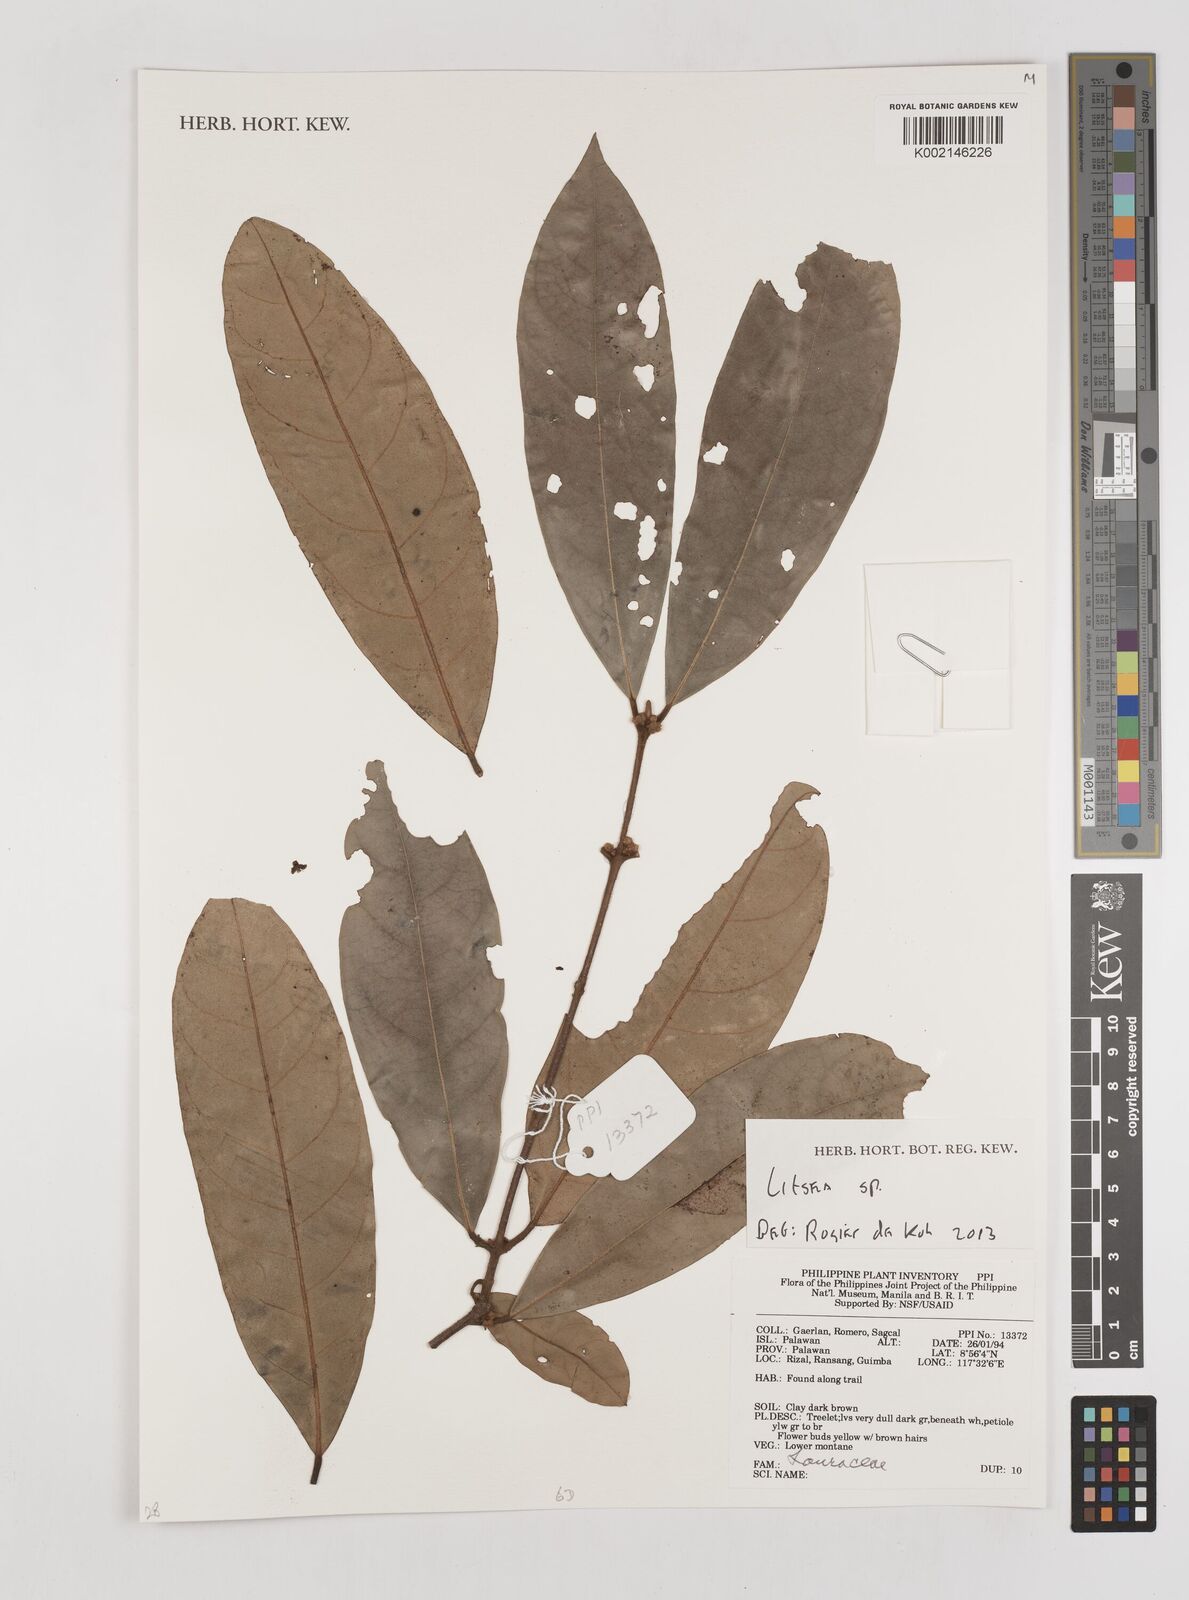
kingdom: Plantae
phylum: Tracheophyta
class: Magnoliopsida
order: Laurales
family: Lauraceae
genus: Litsea
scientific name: Litsea
